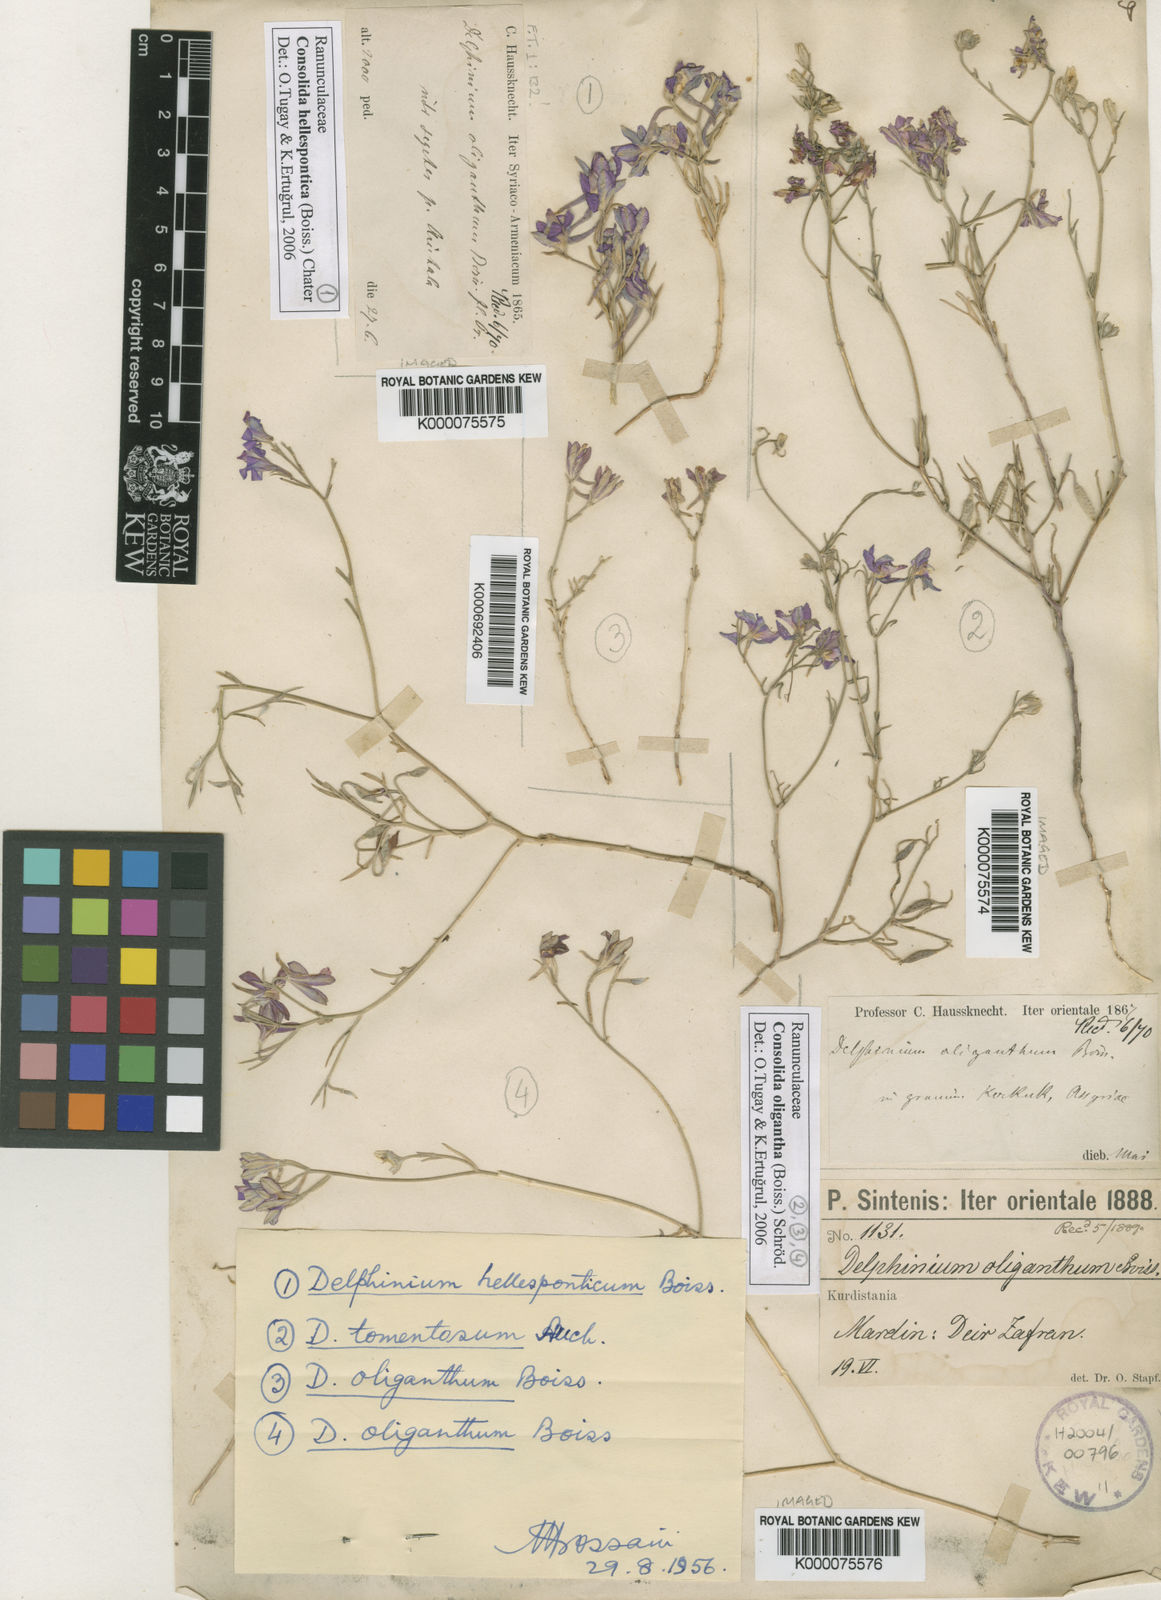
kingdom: Plantae
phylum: Tracheophyta
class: Magnoliopsida
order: Ranunculales
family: Ranunculaceae
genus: Delphinium
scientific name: Delphinium pusillum
